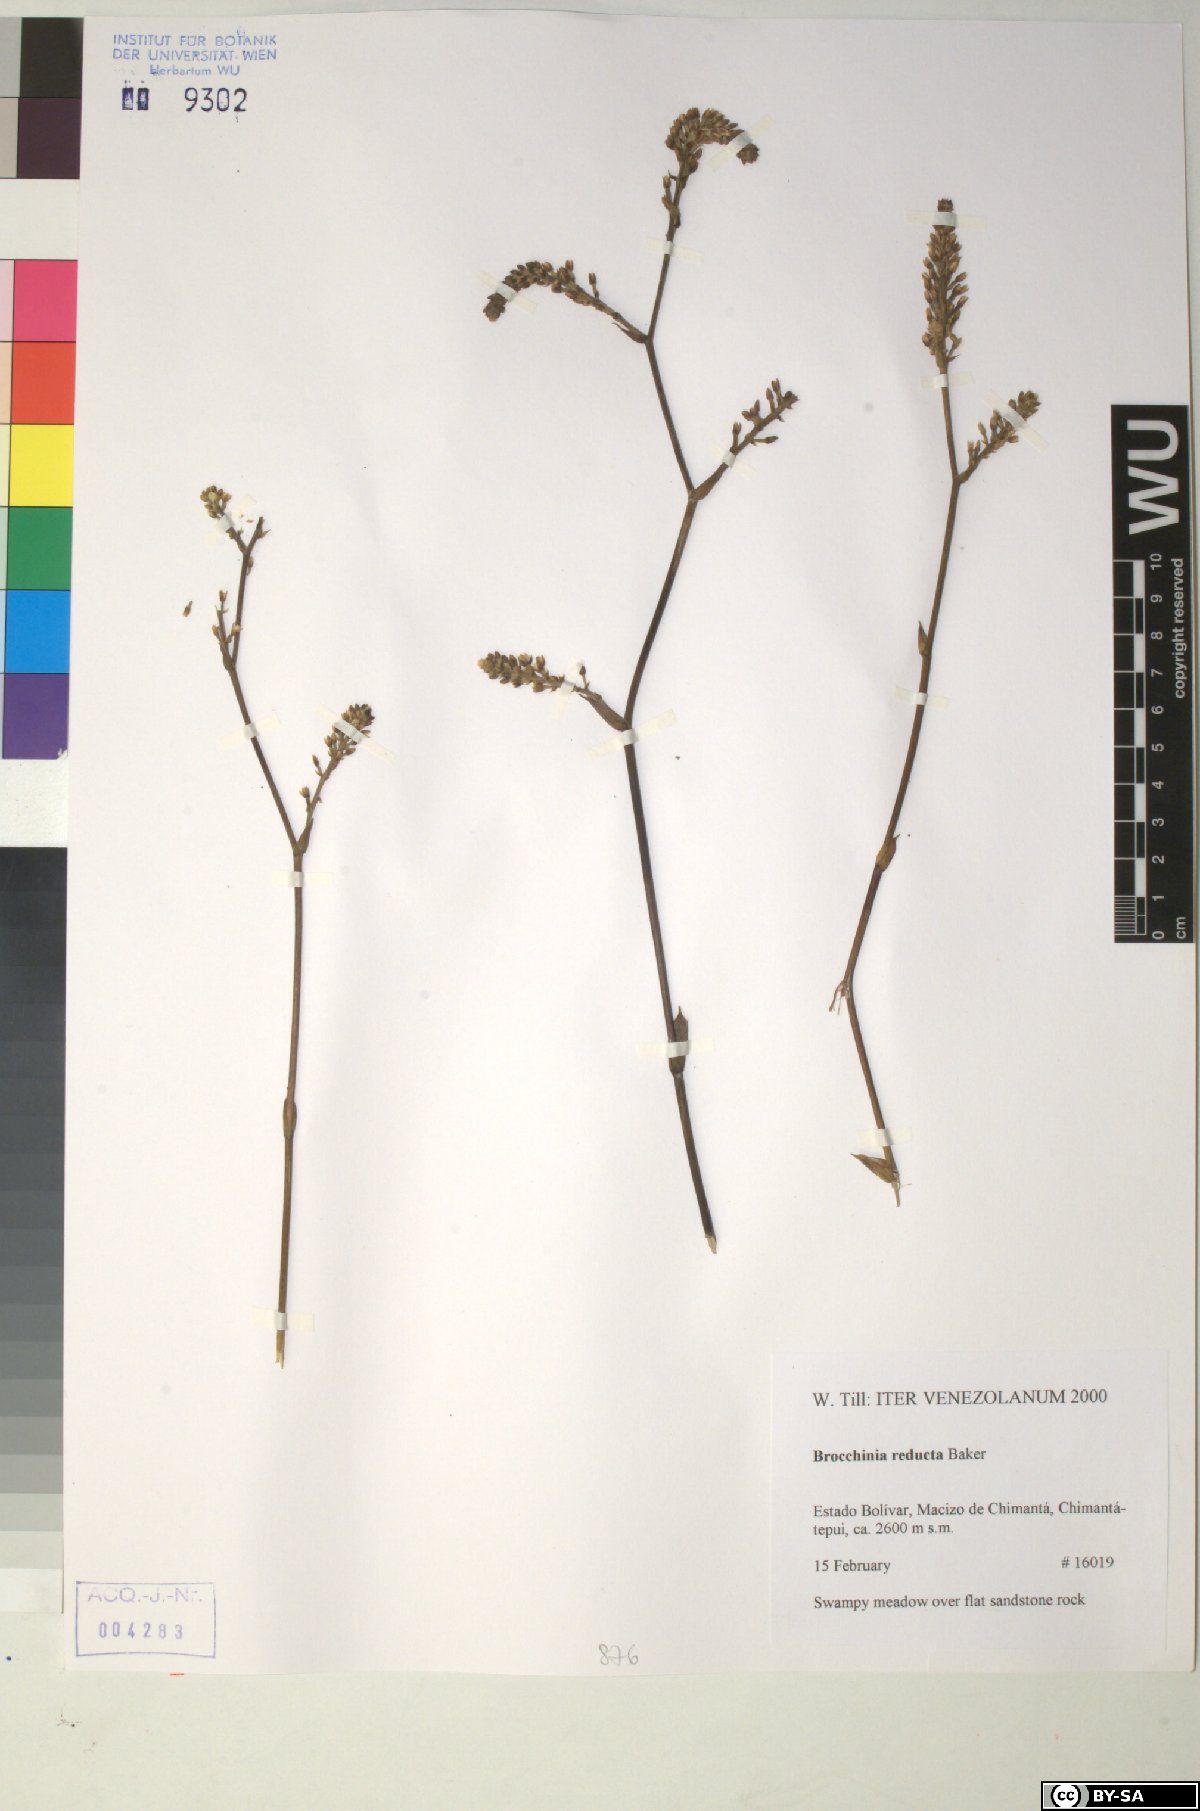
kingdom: Plantae
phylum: Tracheophyta
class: Liliopsida
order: Poales
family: Bromeliaceae
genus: Brocchinia
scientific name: Brocchinia reducta
